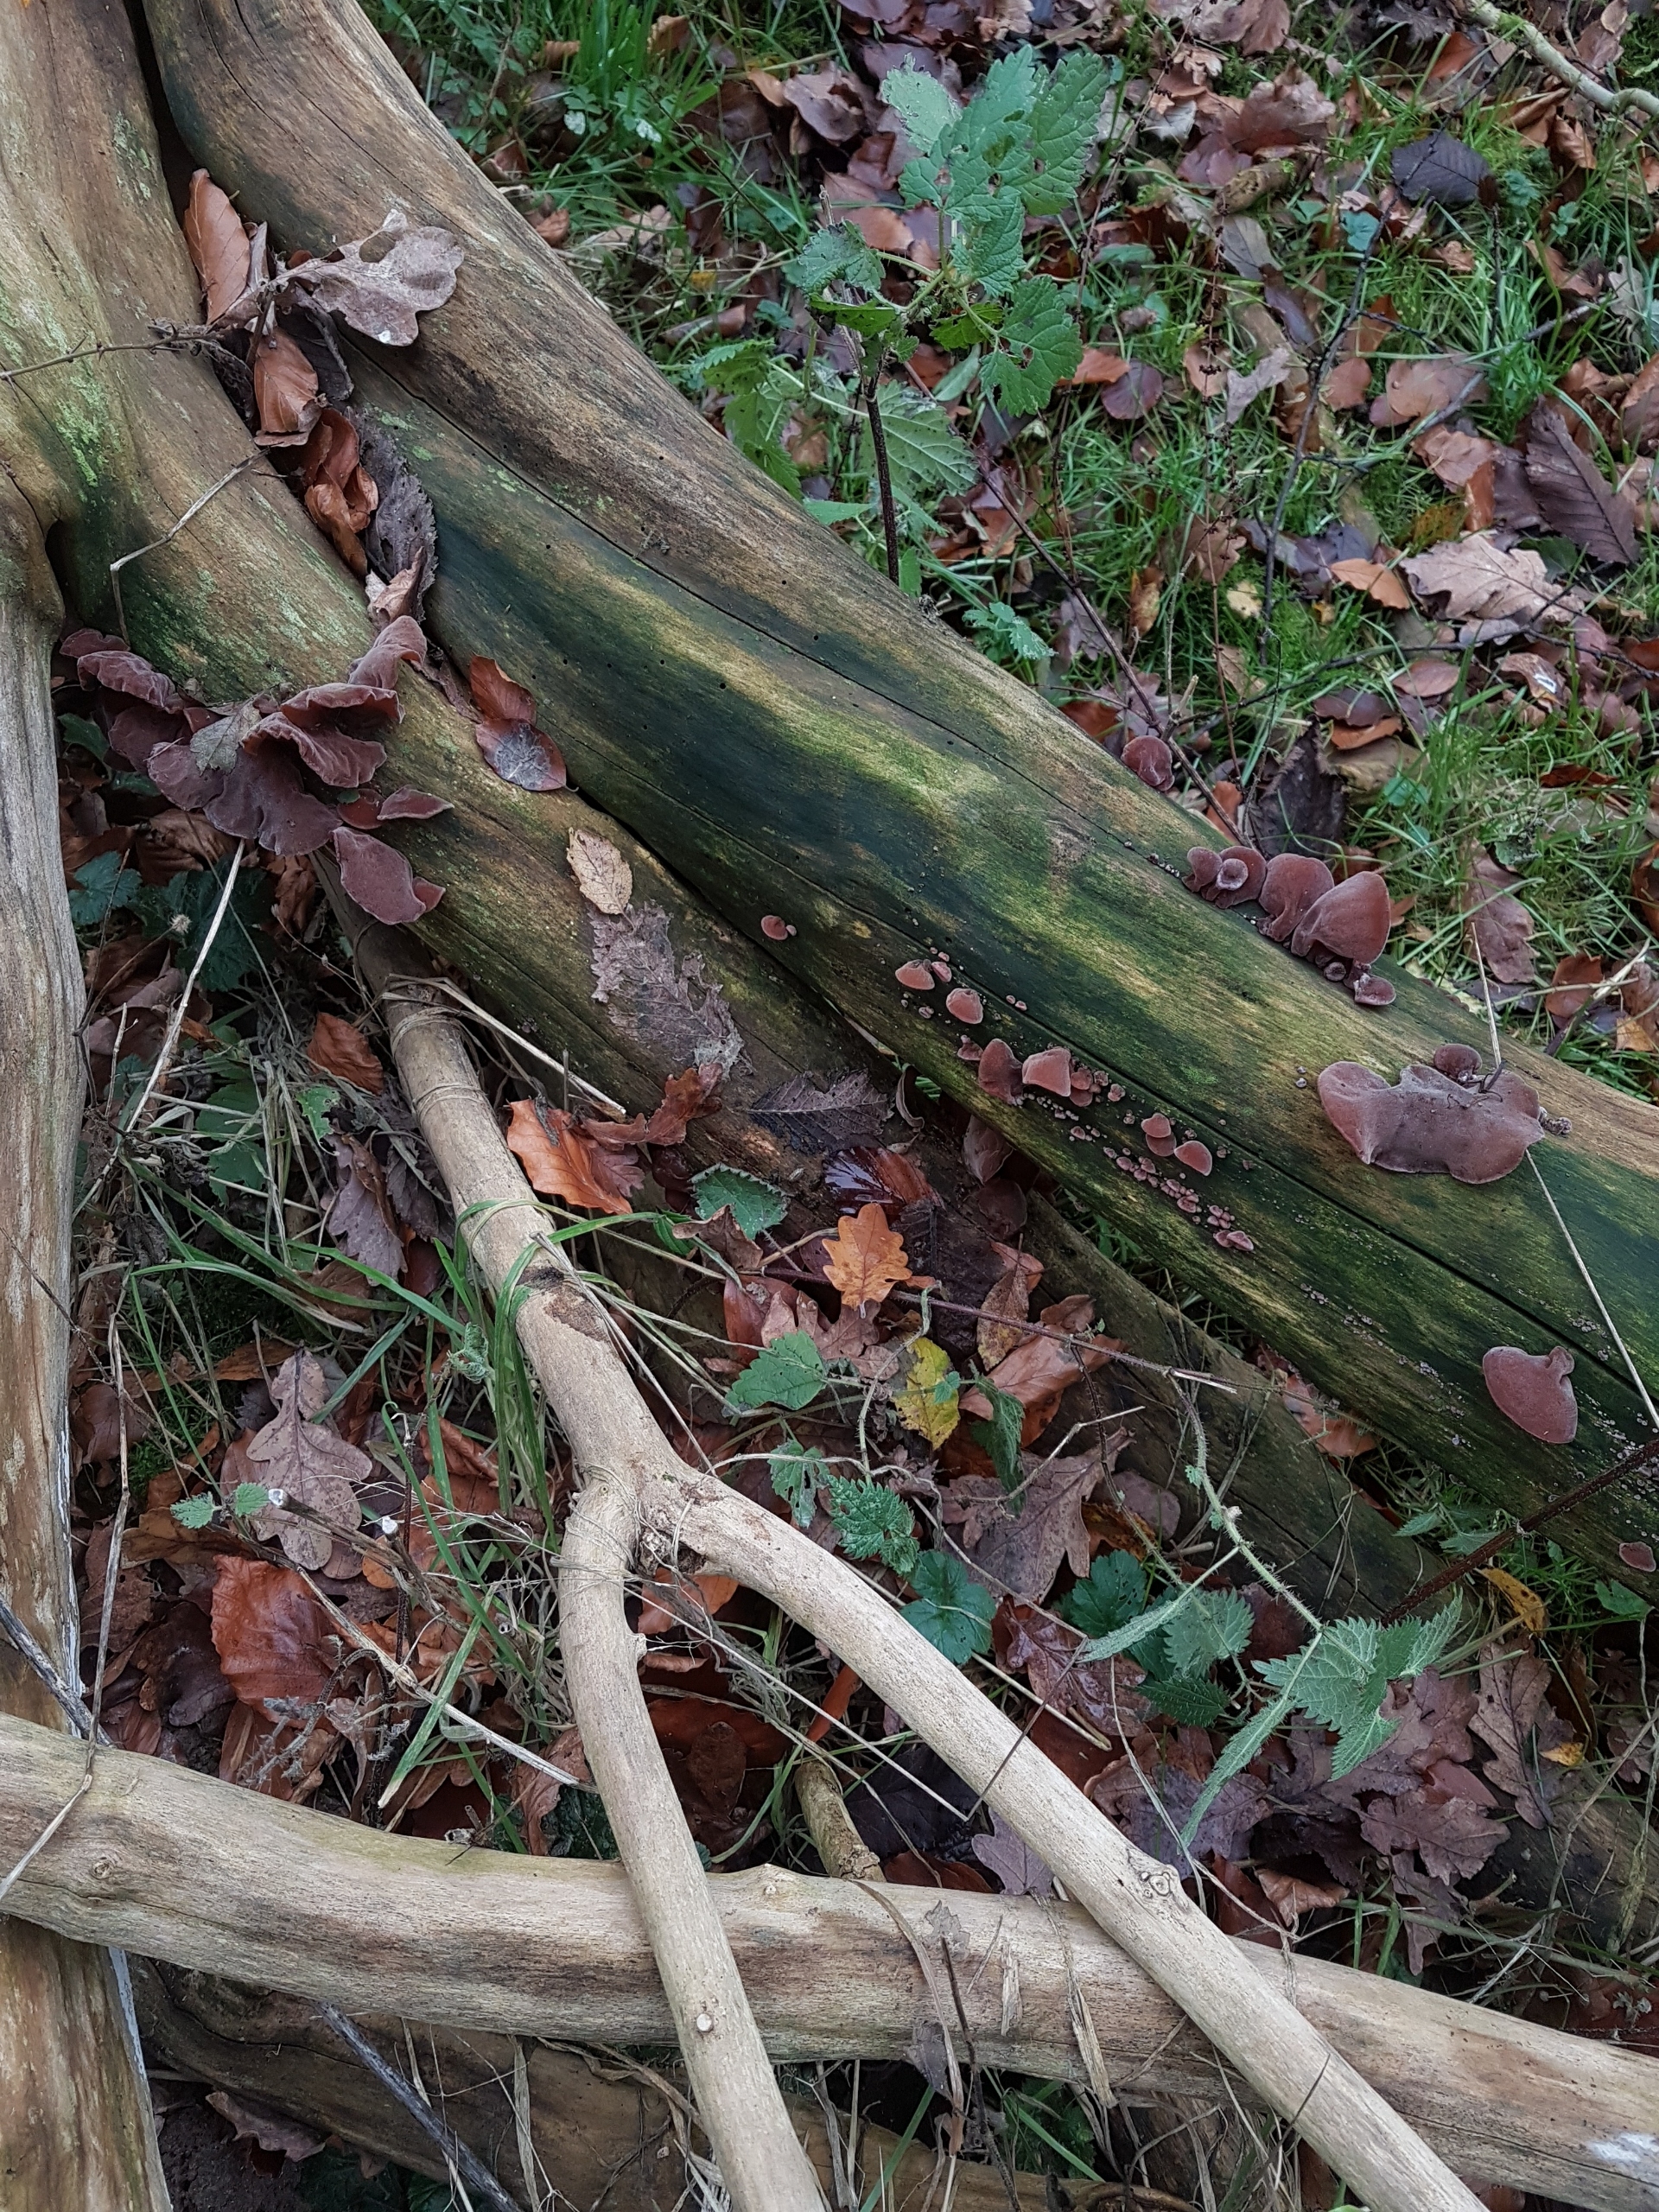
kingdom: Fungi
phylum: Basidiomycota
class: Agaricomycetes
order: Auriculariales
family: Auriculariaceae
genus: Auricularia
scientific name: Auricularia auricula-judae
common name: Almindelig judasøre
